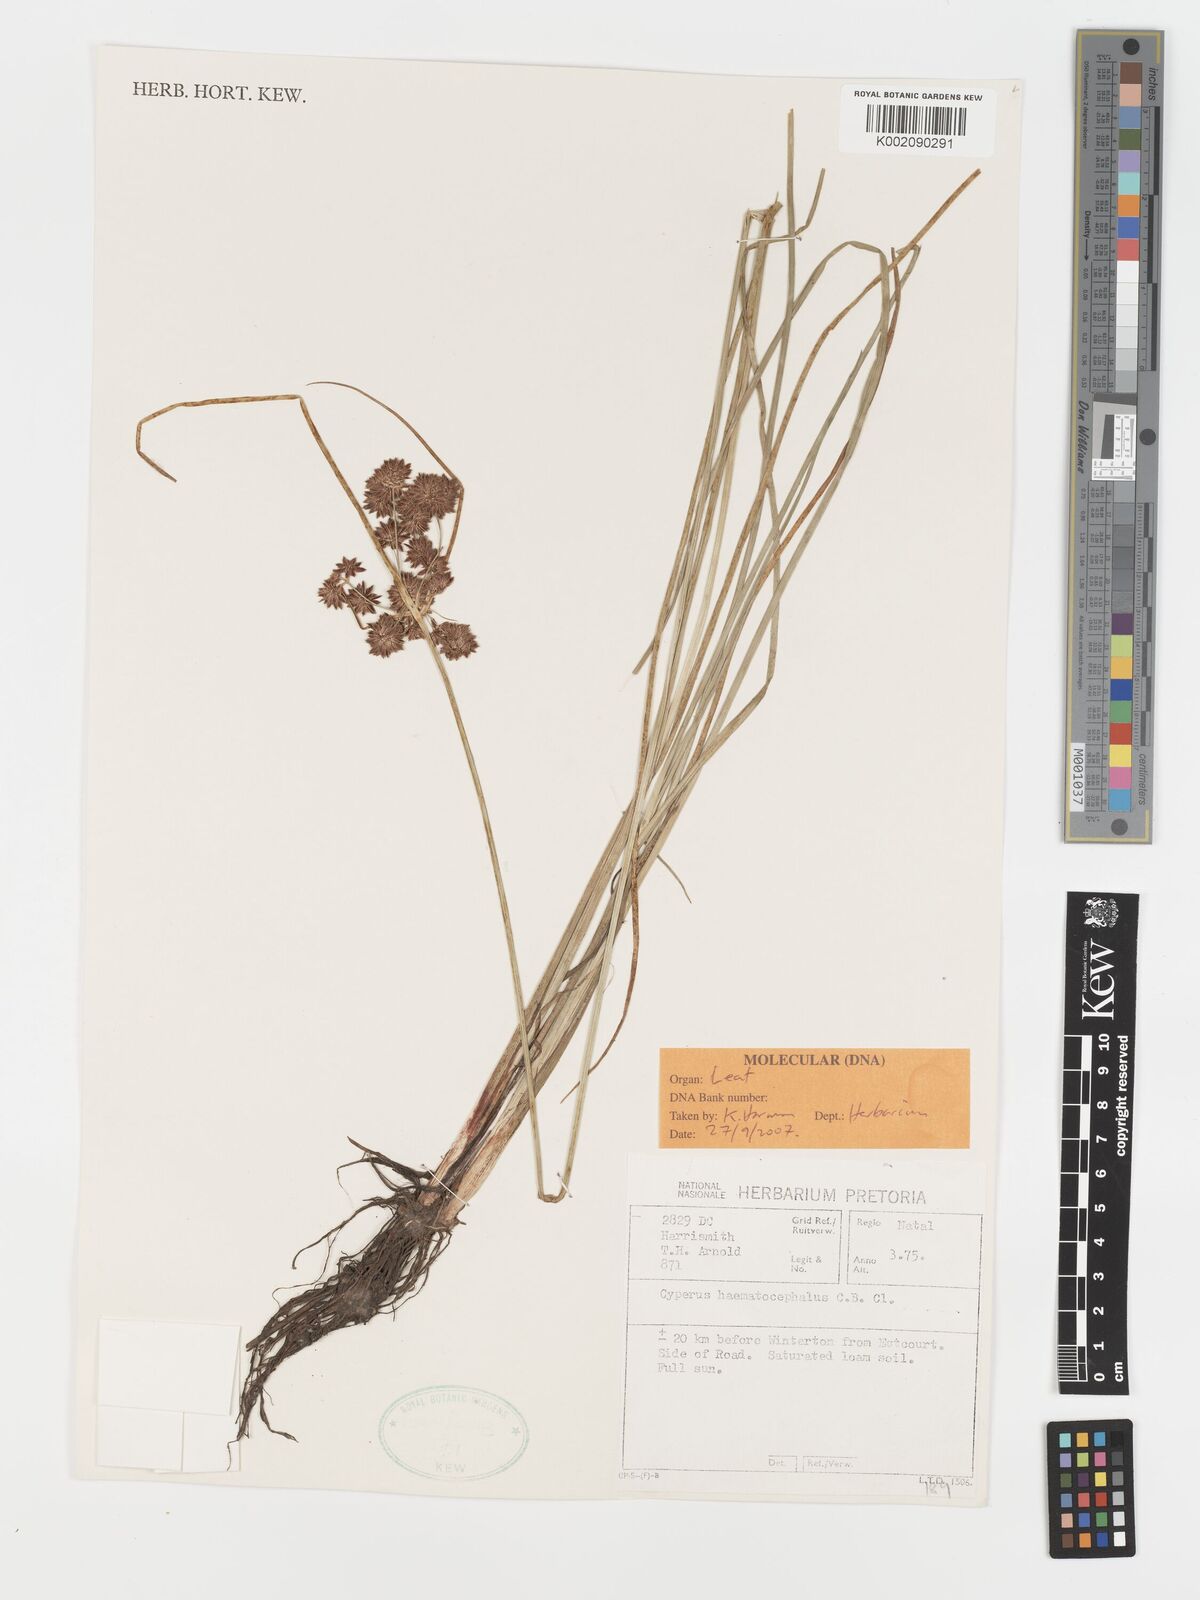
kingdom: Plantae
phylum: Tracheophyta
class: Liliopsida
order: Poales
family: Cyperaceae
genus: Cyperus
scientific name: Cyperus haematocephalus
